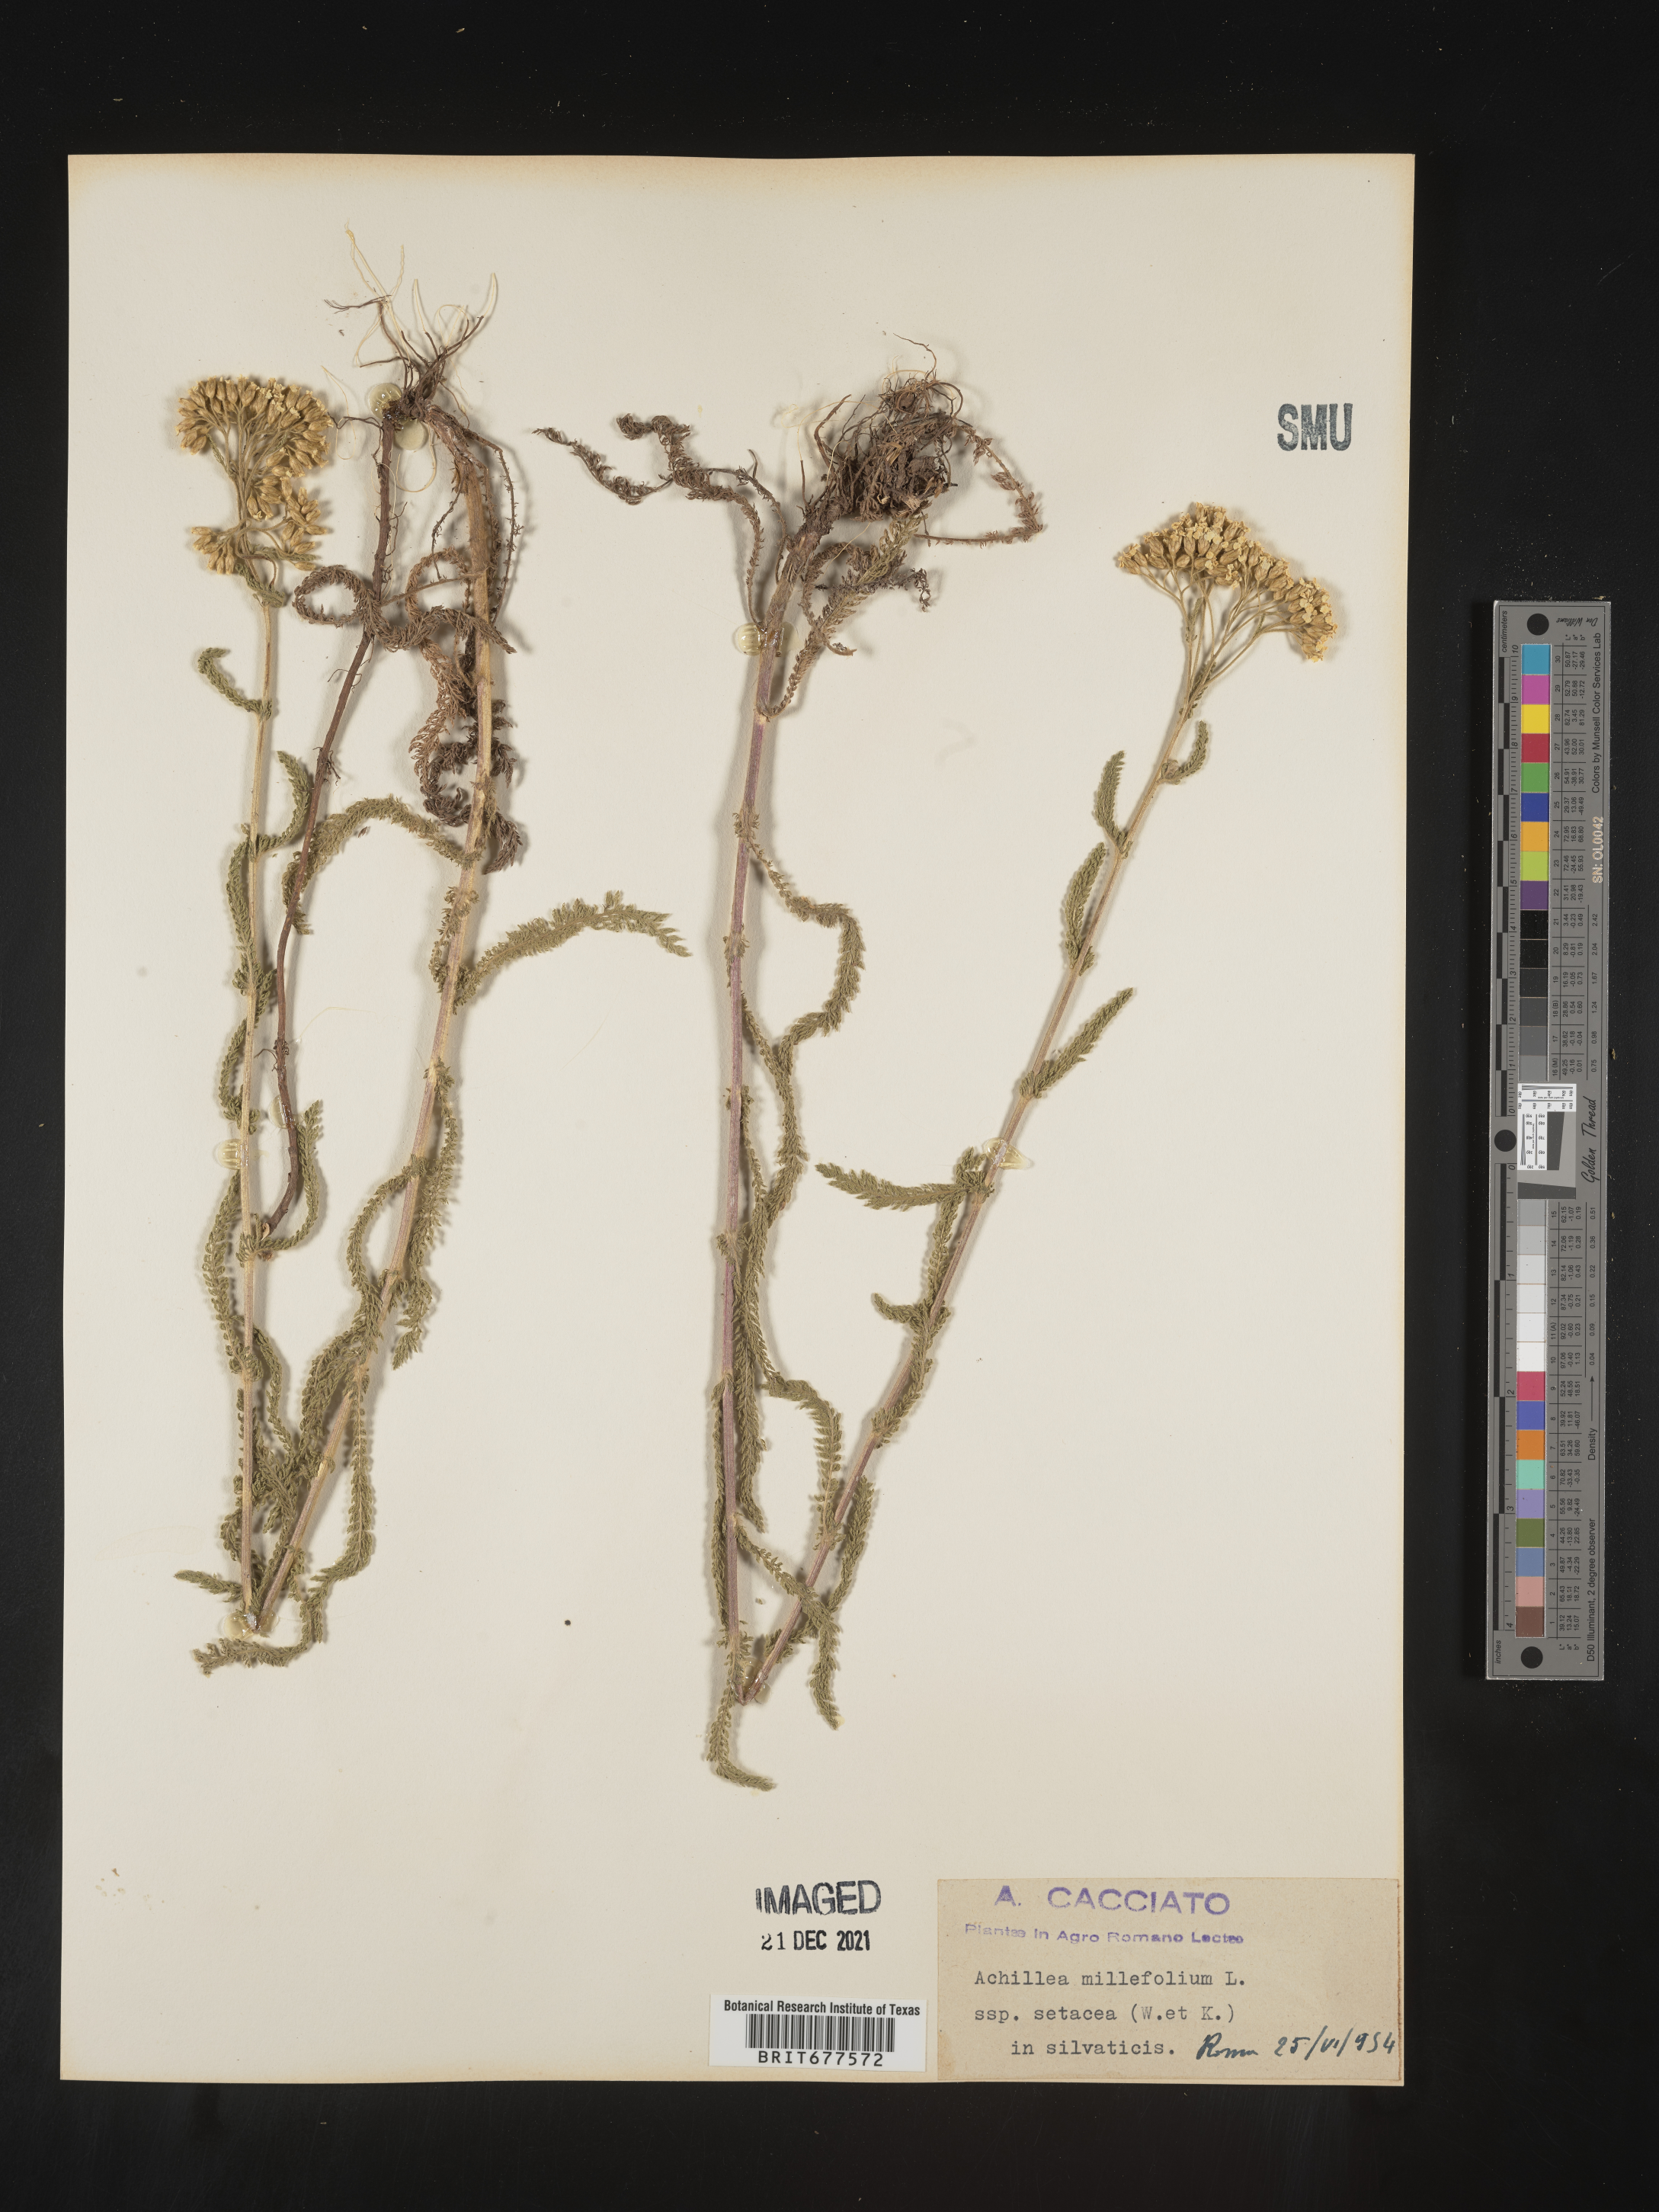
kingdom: Plantae
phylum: Tracheophyta
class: Magnoliopsida
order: Asterales
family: Asteraceae
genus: Achillea
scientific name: Achillea millefolium
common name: Yarrow
